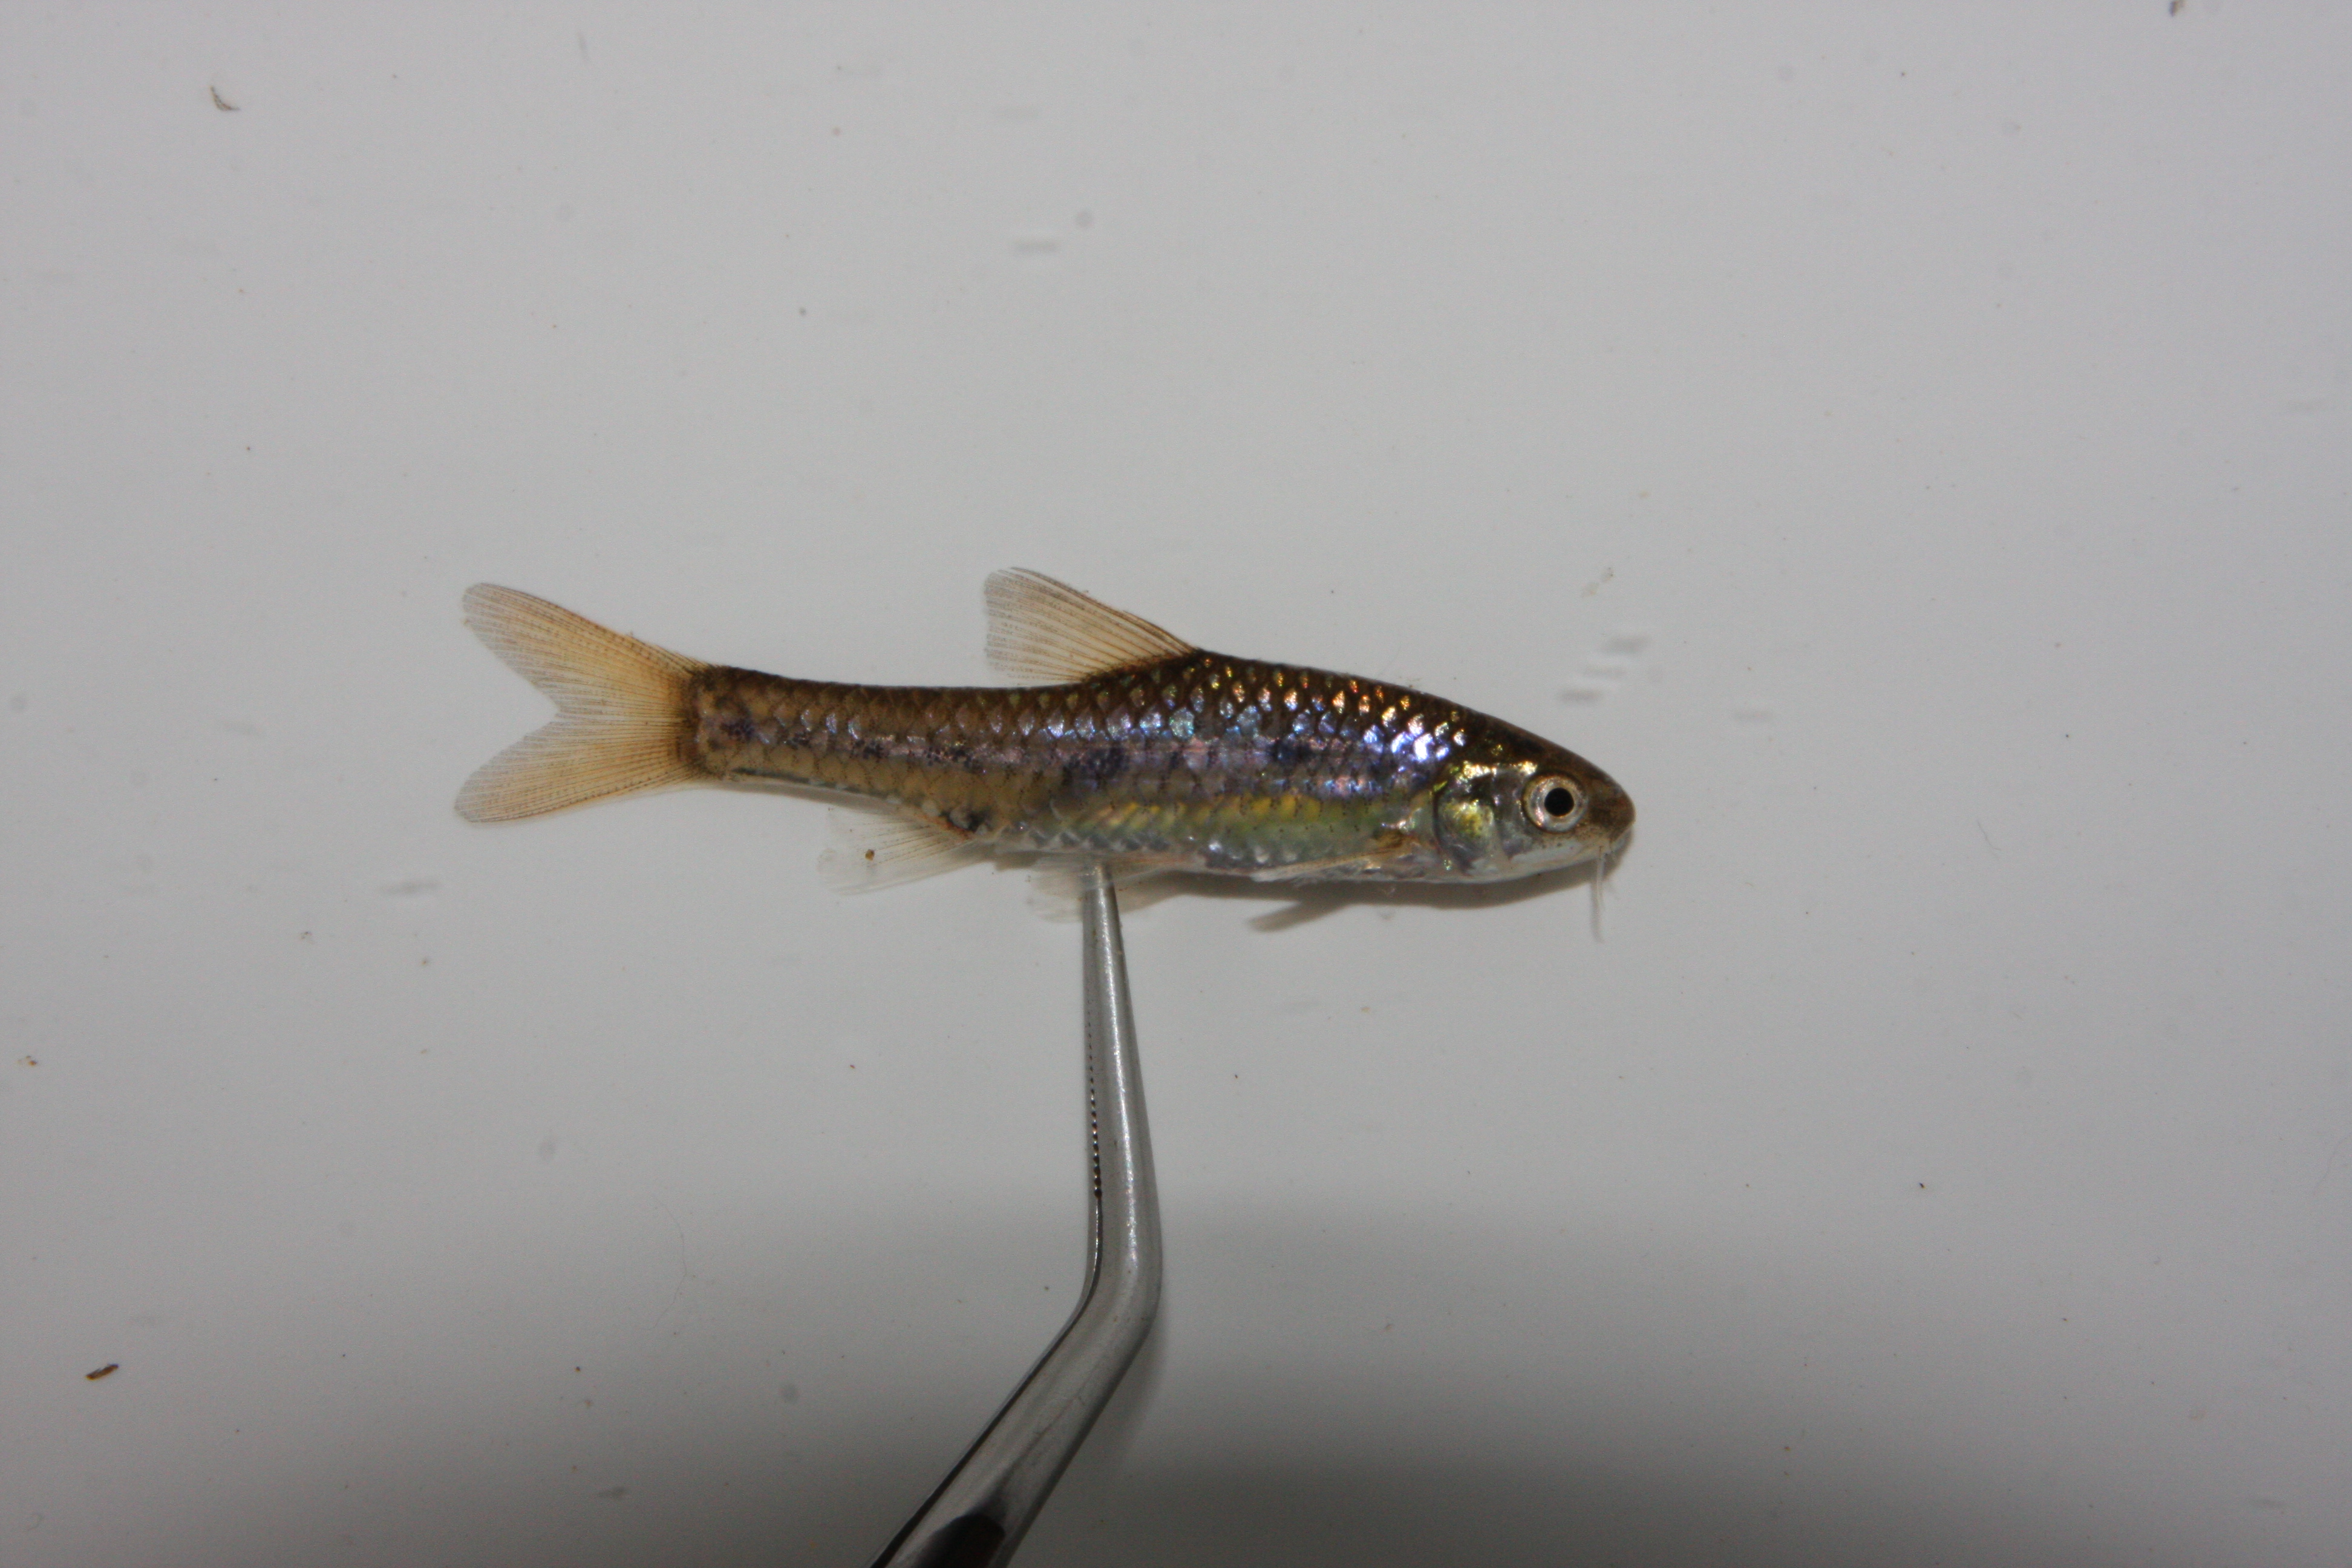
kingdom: Animalia
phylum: Chordata
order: Cypriniformes
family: Cyprinidae
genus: Enteromius
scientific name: Enteromius pallidus
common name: Goldie barb
